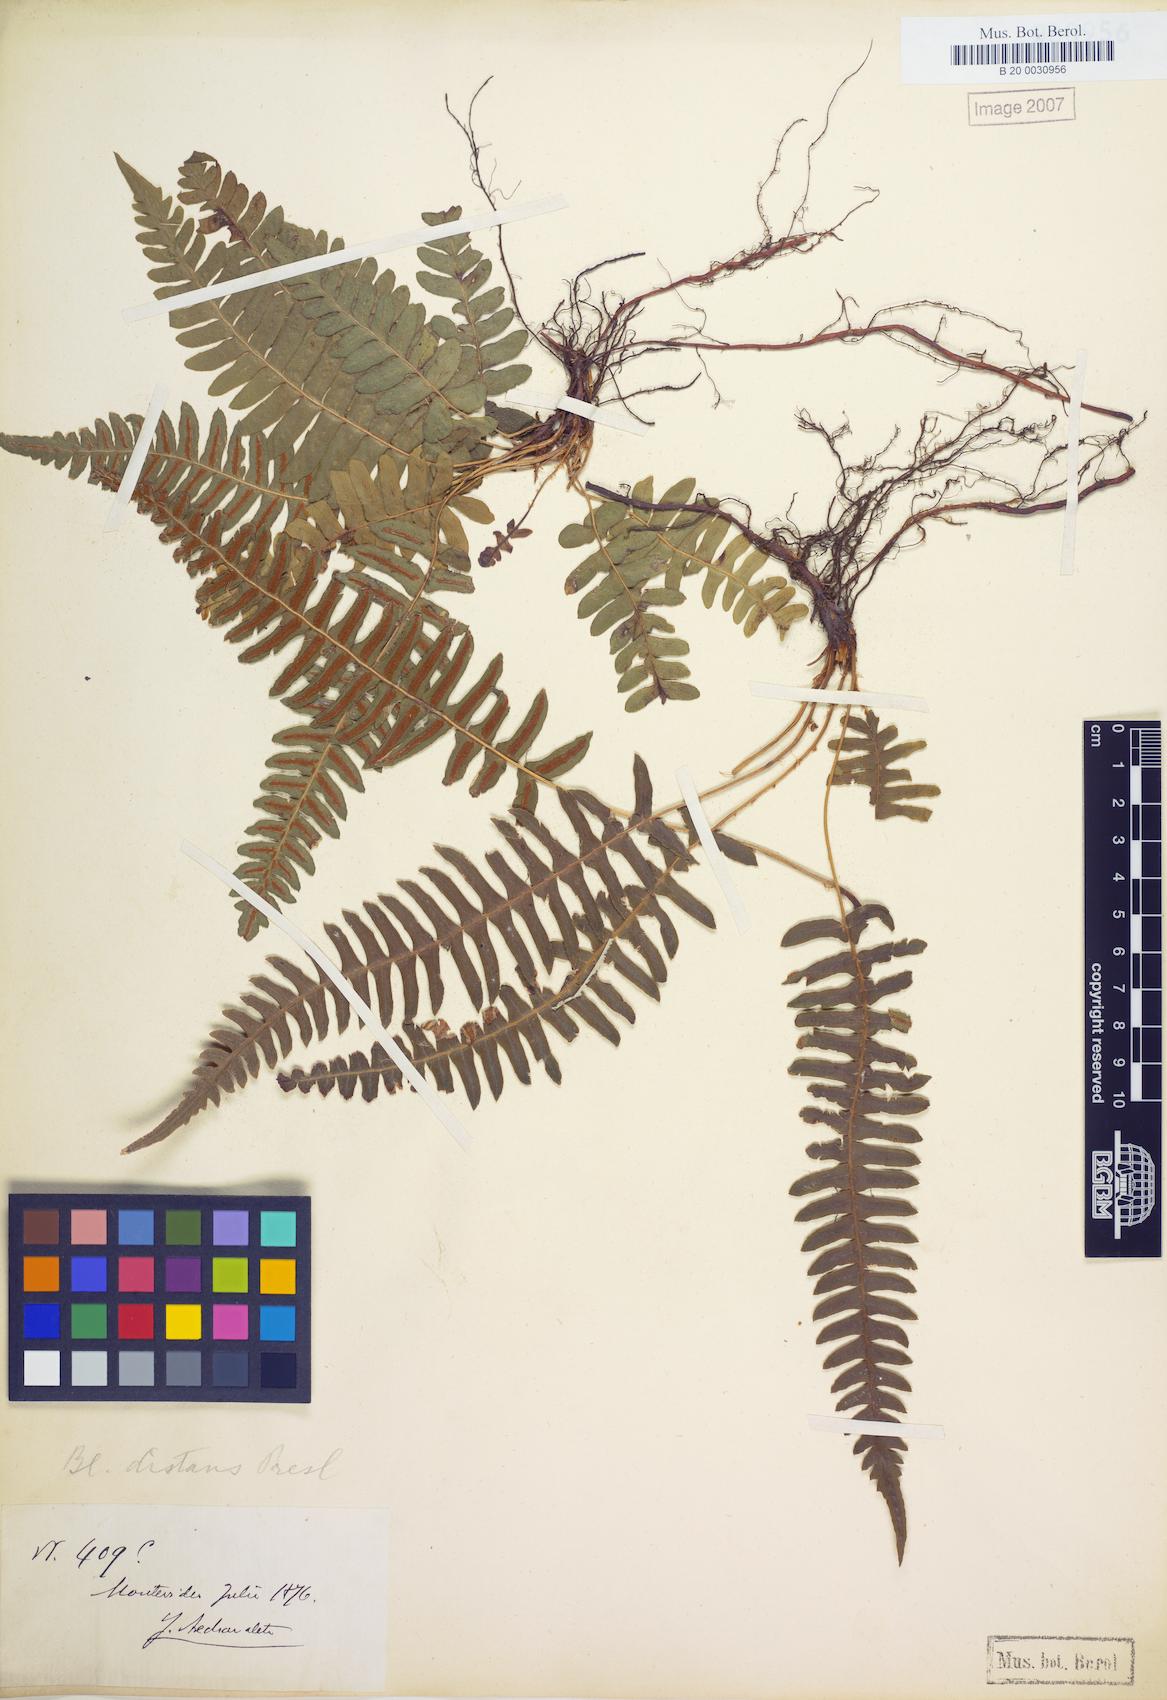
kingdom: Plantae
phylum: Tracheophyta
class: Polypodiopsida
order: Polypodiales
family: Blechnaceae
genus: Blechnum
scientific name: Blechnum laevigatum
